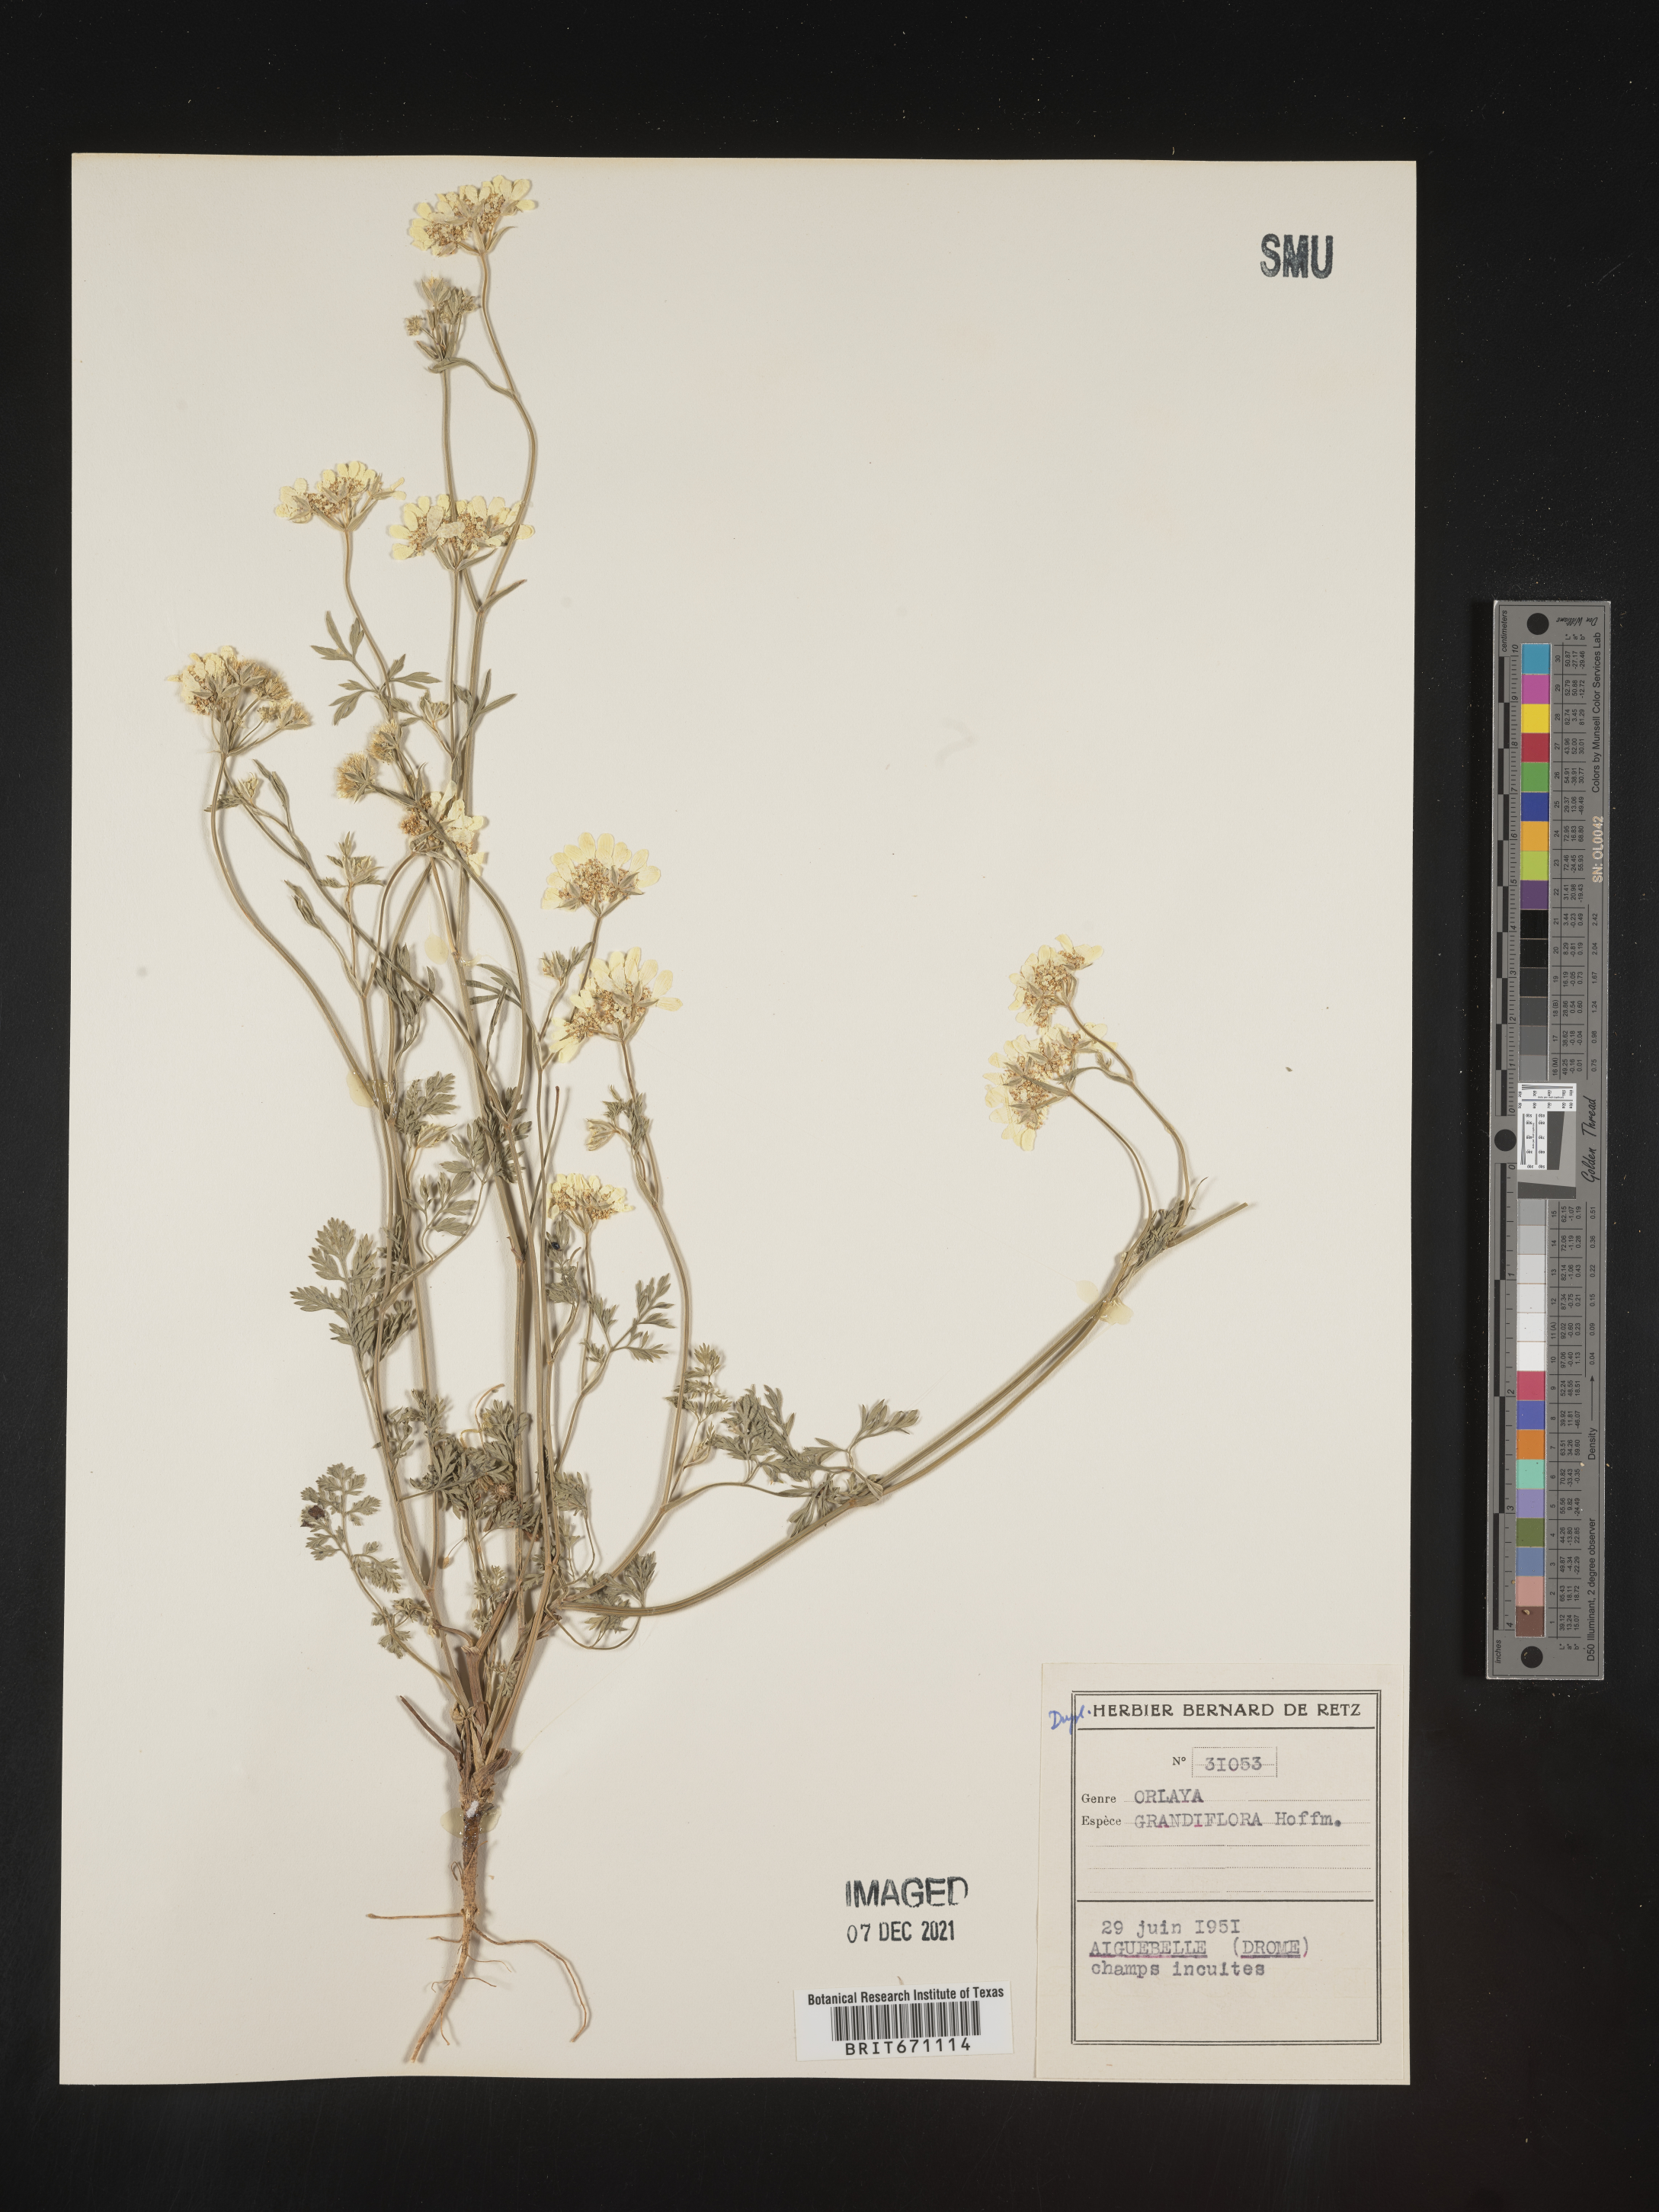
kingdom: Plantae
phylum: Tracheophyta
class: Magnoliopsida
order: Apiales
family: Apiaceae
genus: Orlaya
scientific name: Orlaya
